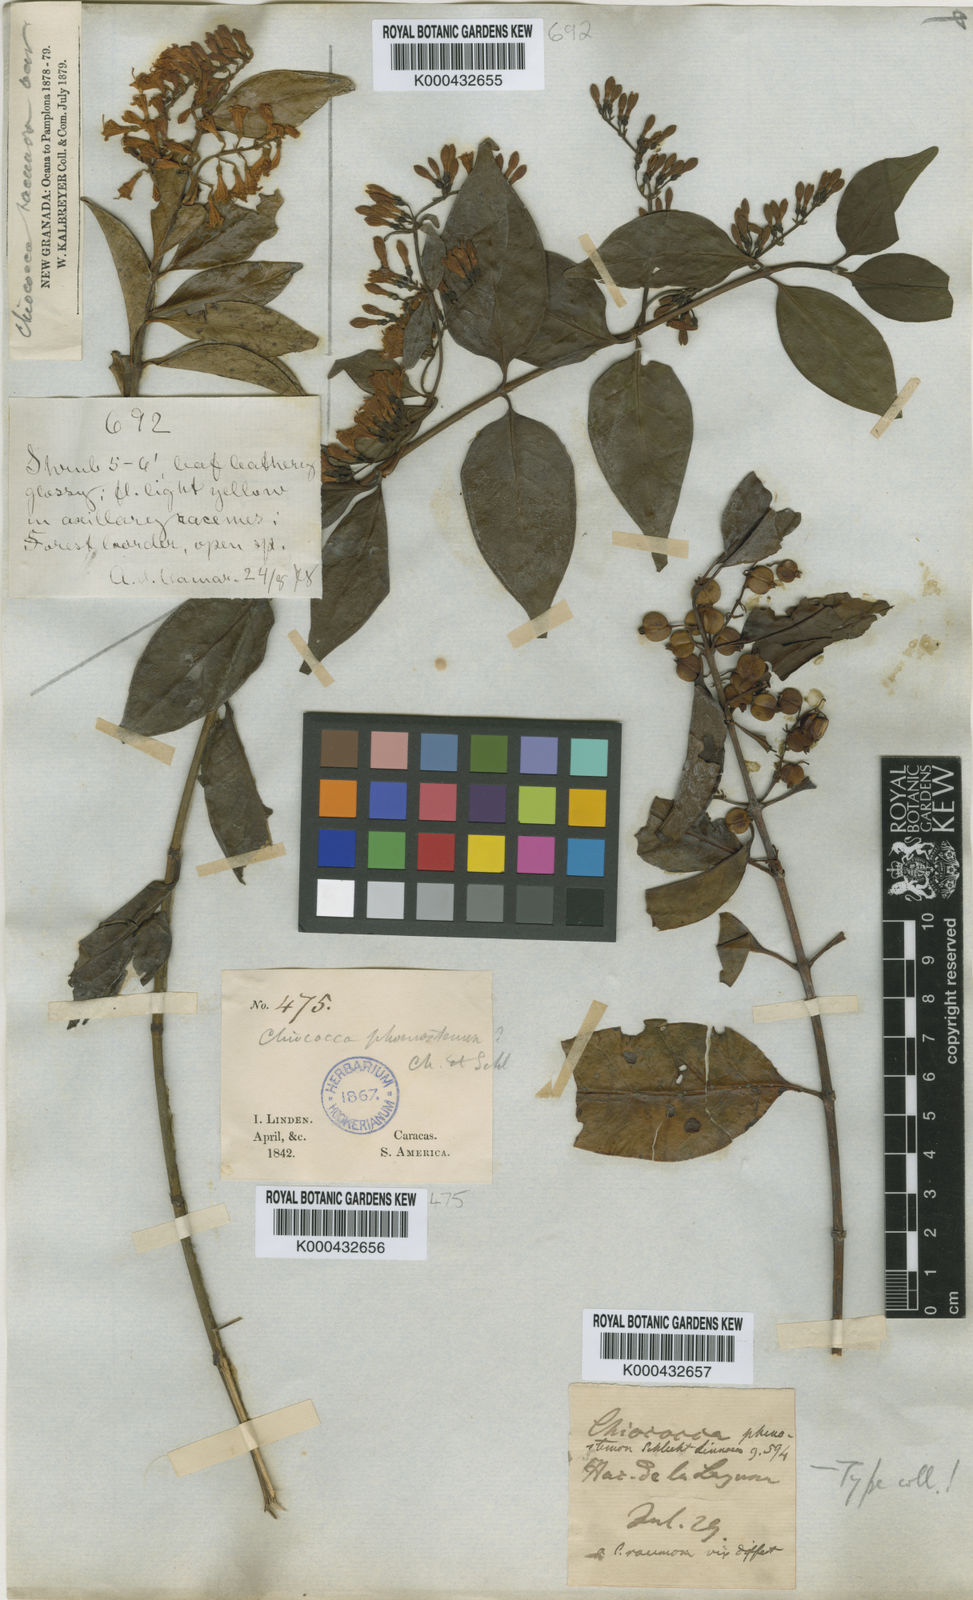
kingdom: Plantae
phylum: Tracheophyta
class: Magnoliopsida
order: Gentianales
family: Rubiaceae
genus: Chiococca
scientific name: Chiococca phaenostemon
